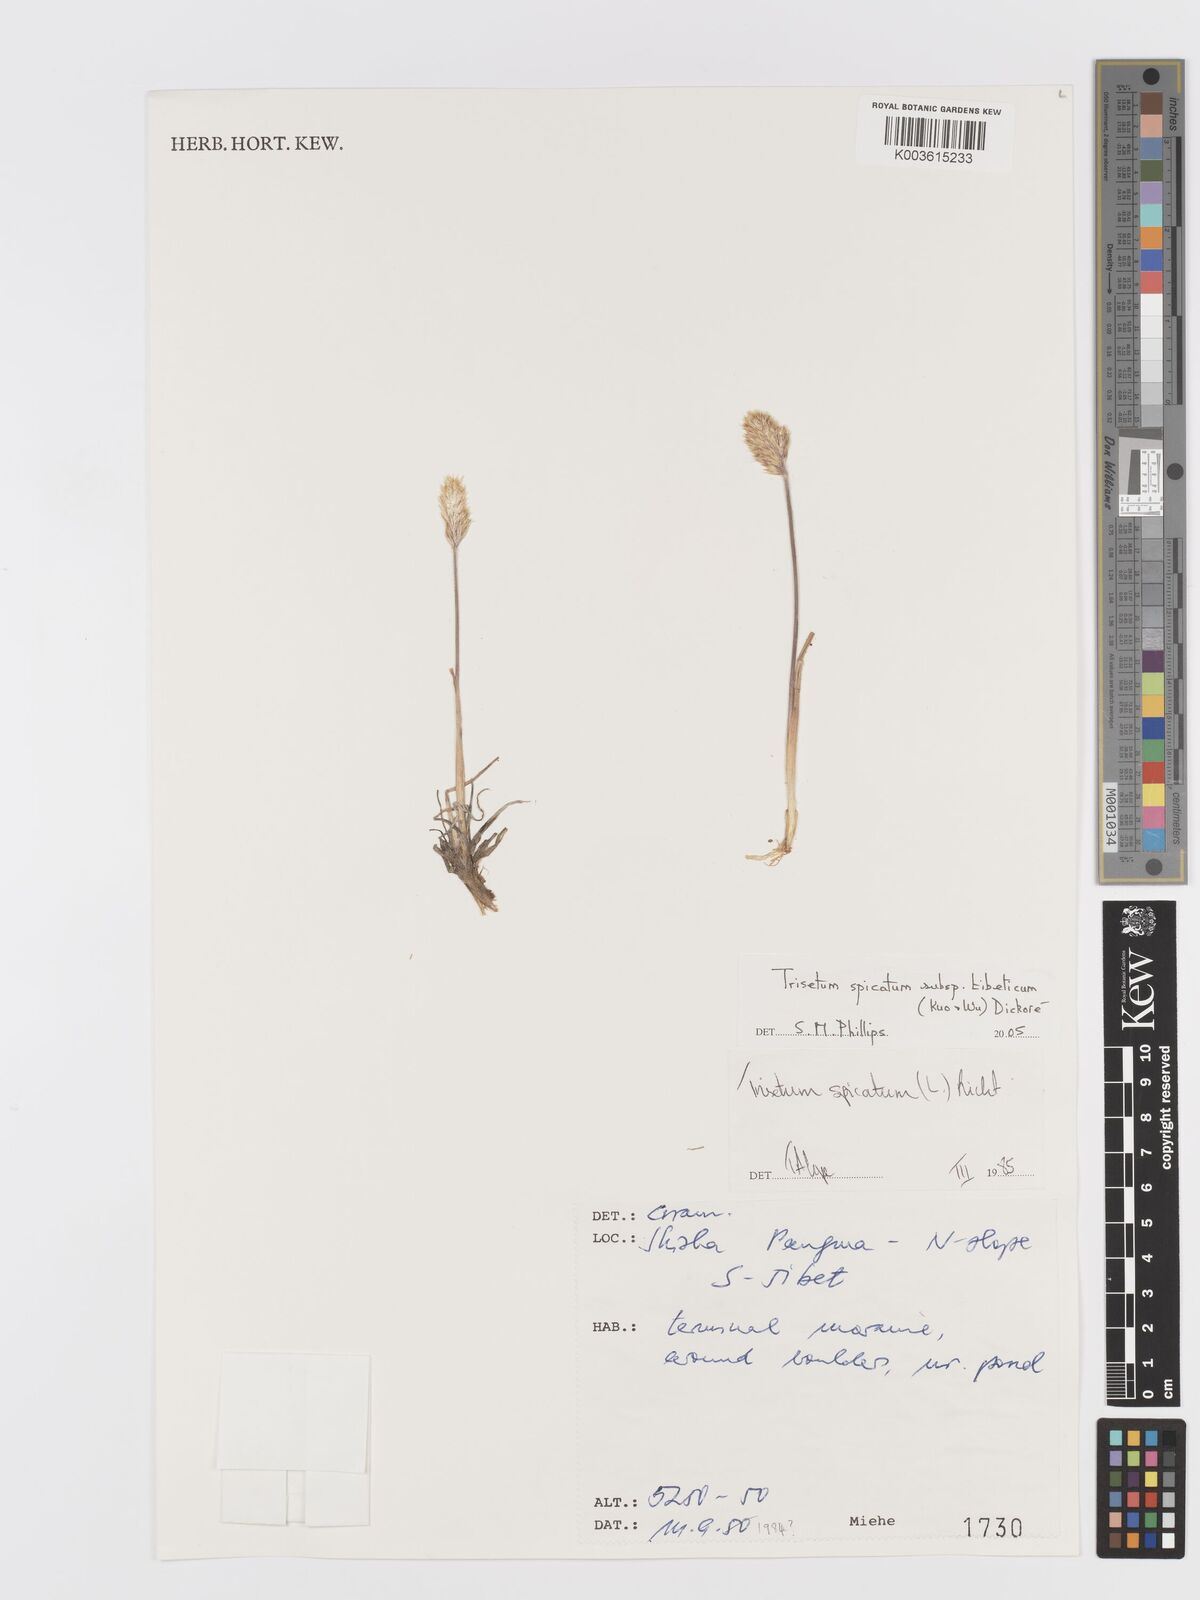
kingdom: Plantae
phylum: Tracheophyta
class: Liliopsida
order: Poales
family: Poaceae
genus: Koeleria
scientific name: Koeleria spicata
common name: Mountain trisetum
